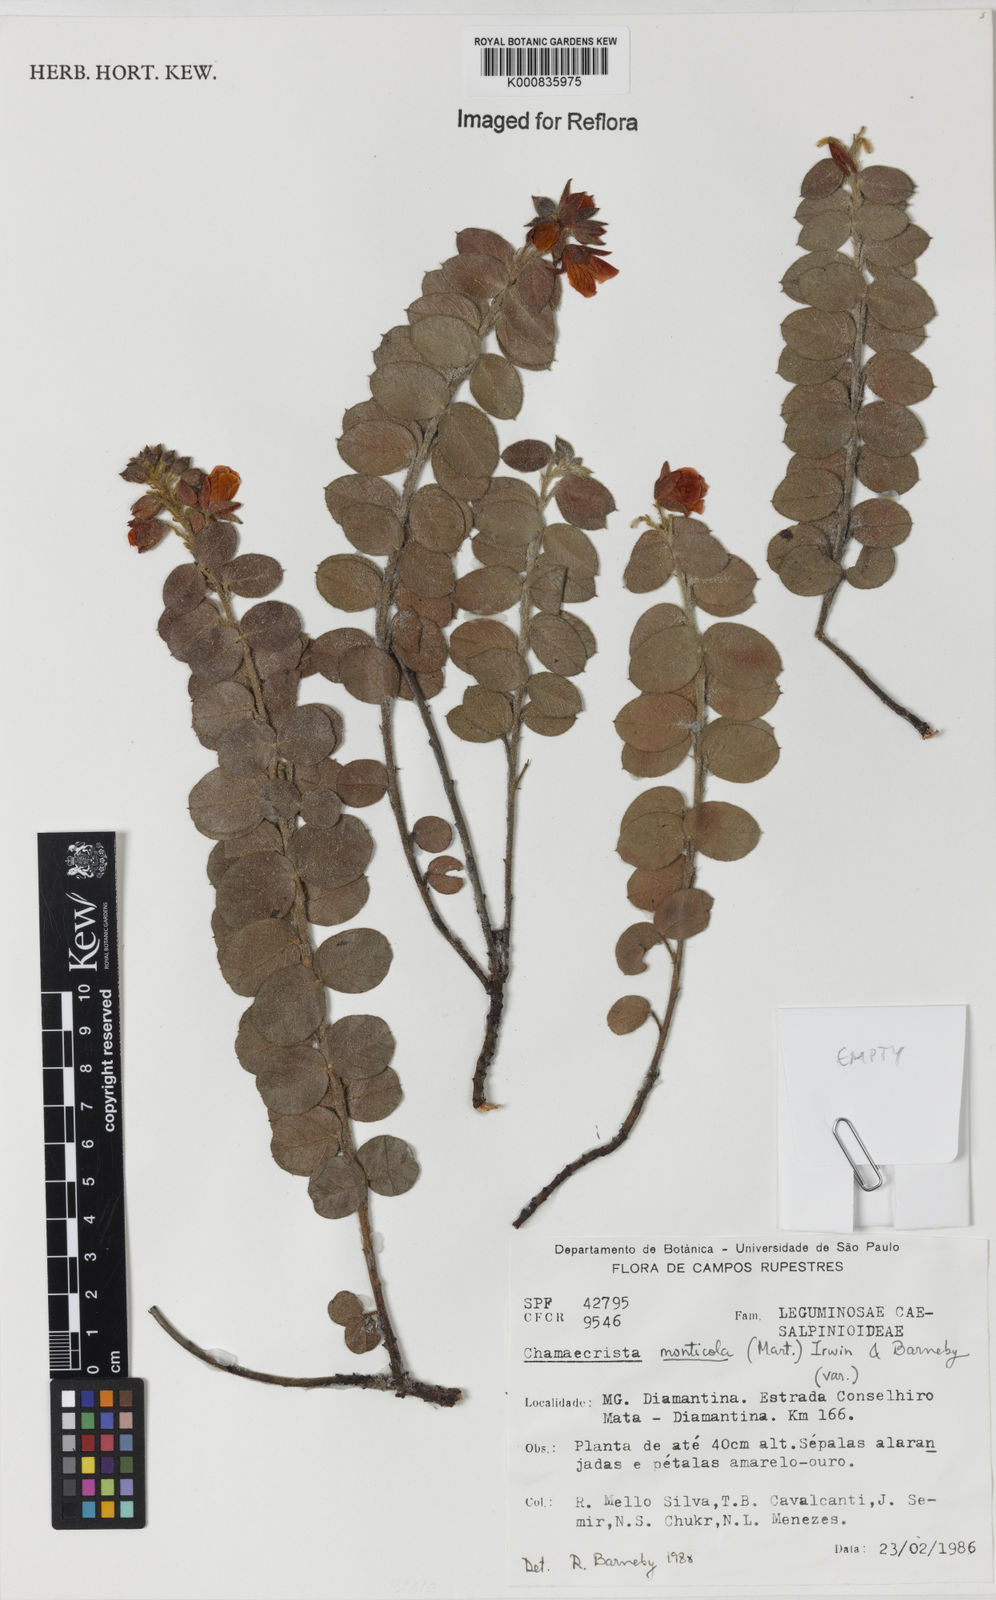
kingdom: Plantae
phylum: Tracheophyta
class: Magnoliopsida
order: Fabales
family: Fabaceae
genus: Chamaecrista
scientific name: Chamaecrista monticola
